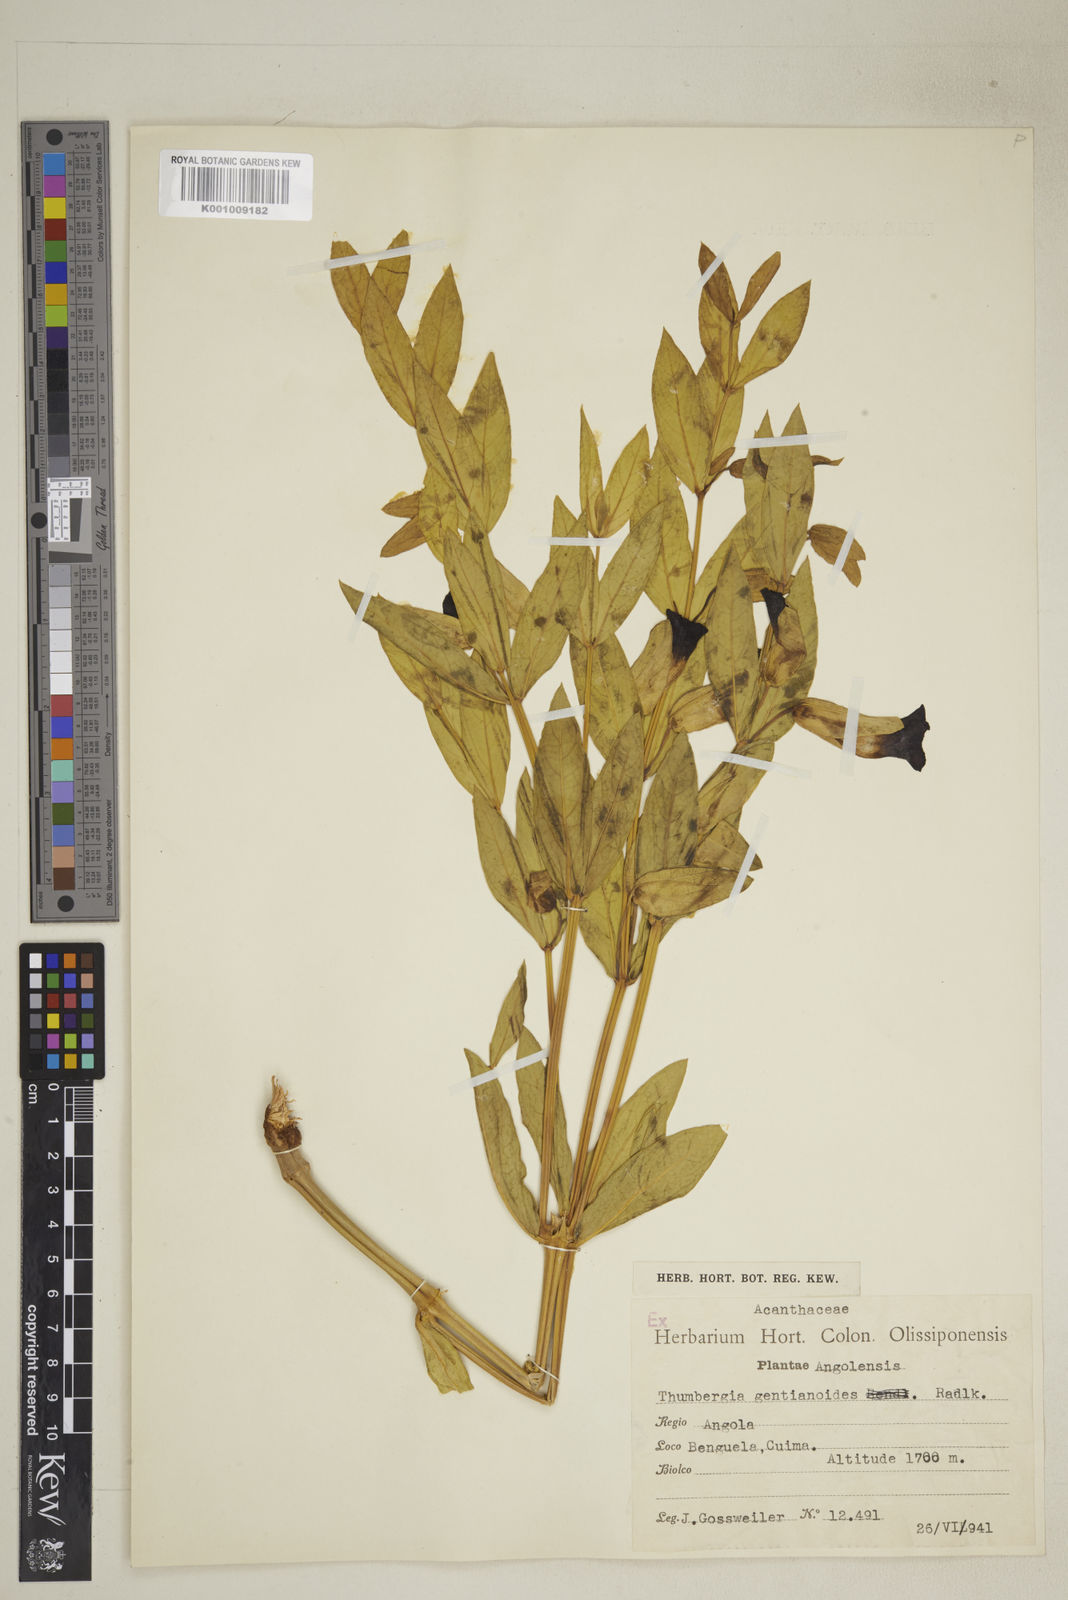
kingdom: Plantae
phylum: Tracheophyta
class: Magnoliopsida
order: Lamiales
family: Acanthaceae
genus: Thunbergia
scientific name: Thunbergia lancifolia
